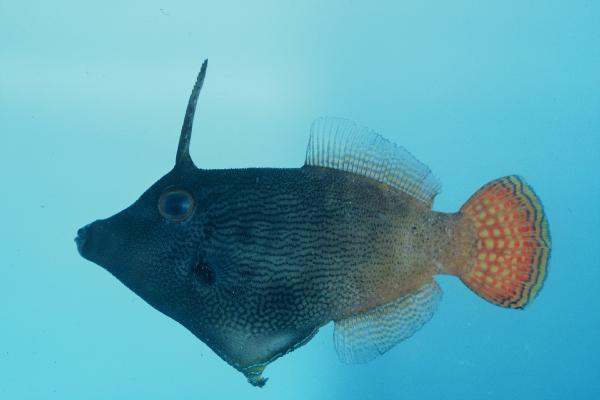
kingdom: Animalia
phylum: Chordata
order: Tetraodontiformes
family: Monacanthidae
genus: Pervagor
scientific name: Pervagor janthinosoma
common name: Blackbar filefish
